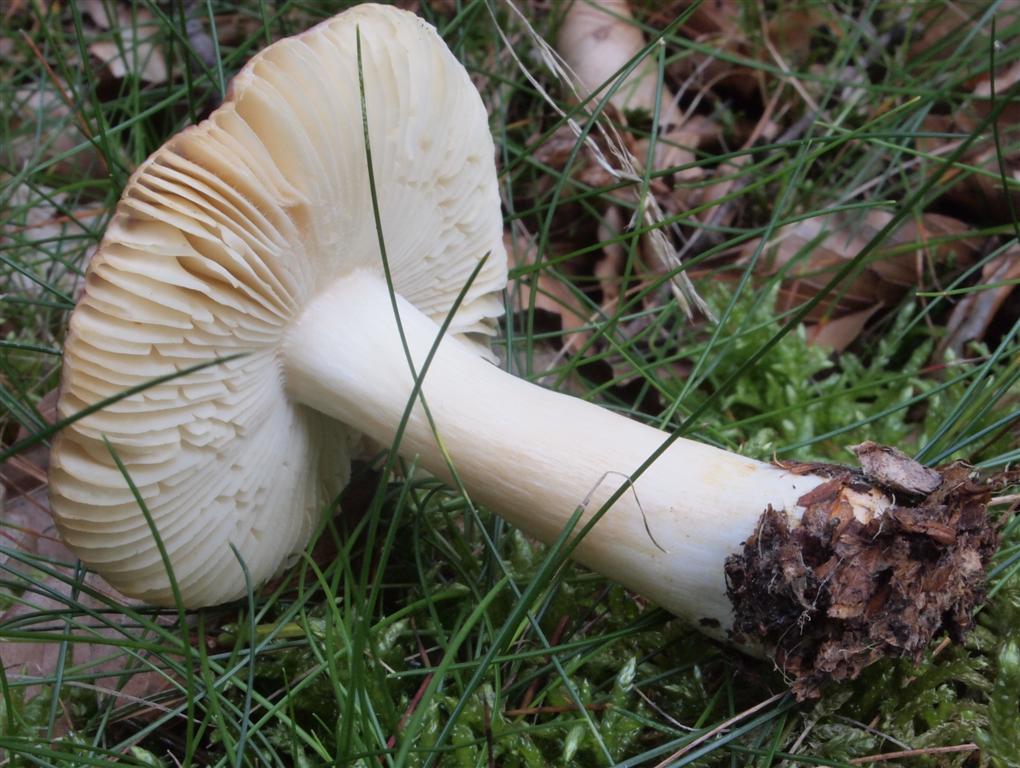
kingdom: Fungi
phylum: Basidiomycota
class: Agaricomycetes
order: Russulales
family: Russulaceae
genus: Lactarius
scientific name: Lactarius porninsis
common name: lærke-mælkehat
